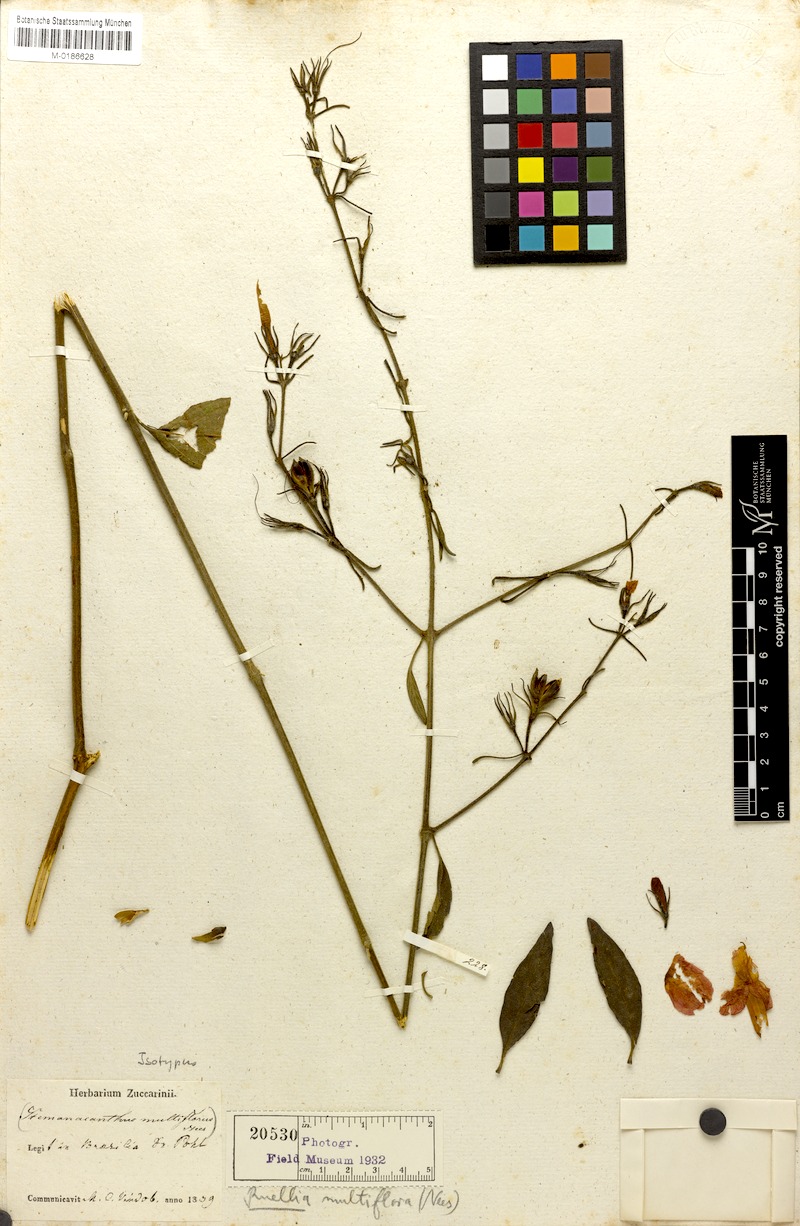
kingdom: Plantae
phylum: Tracheophyta
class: Magnoliopsida
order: Lamiales
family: Acanthaceae
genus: Ruellia
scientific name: Ruellia multifolia
